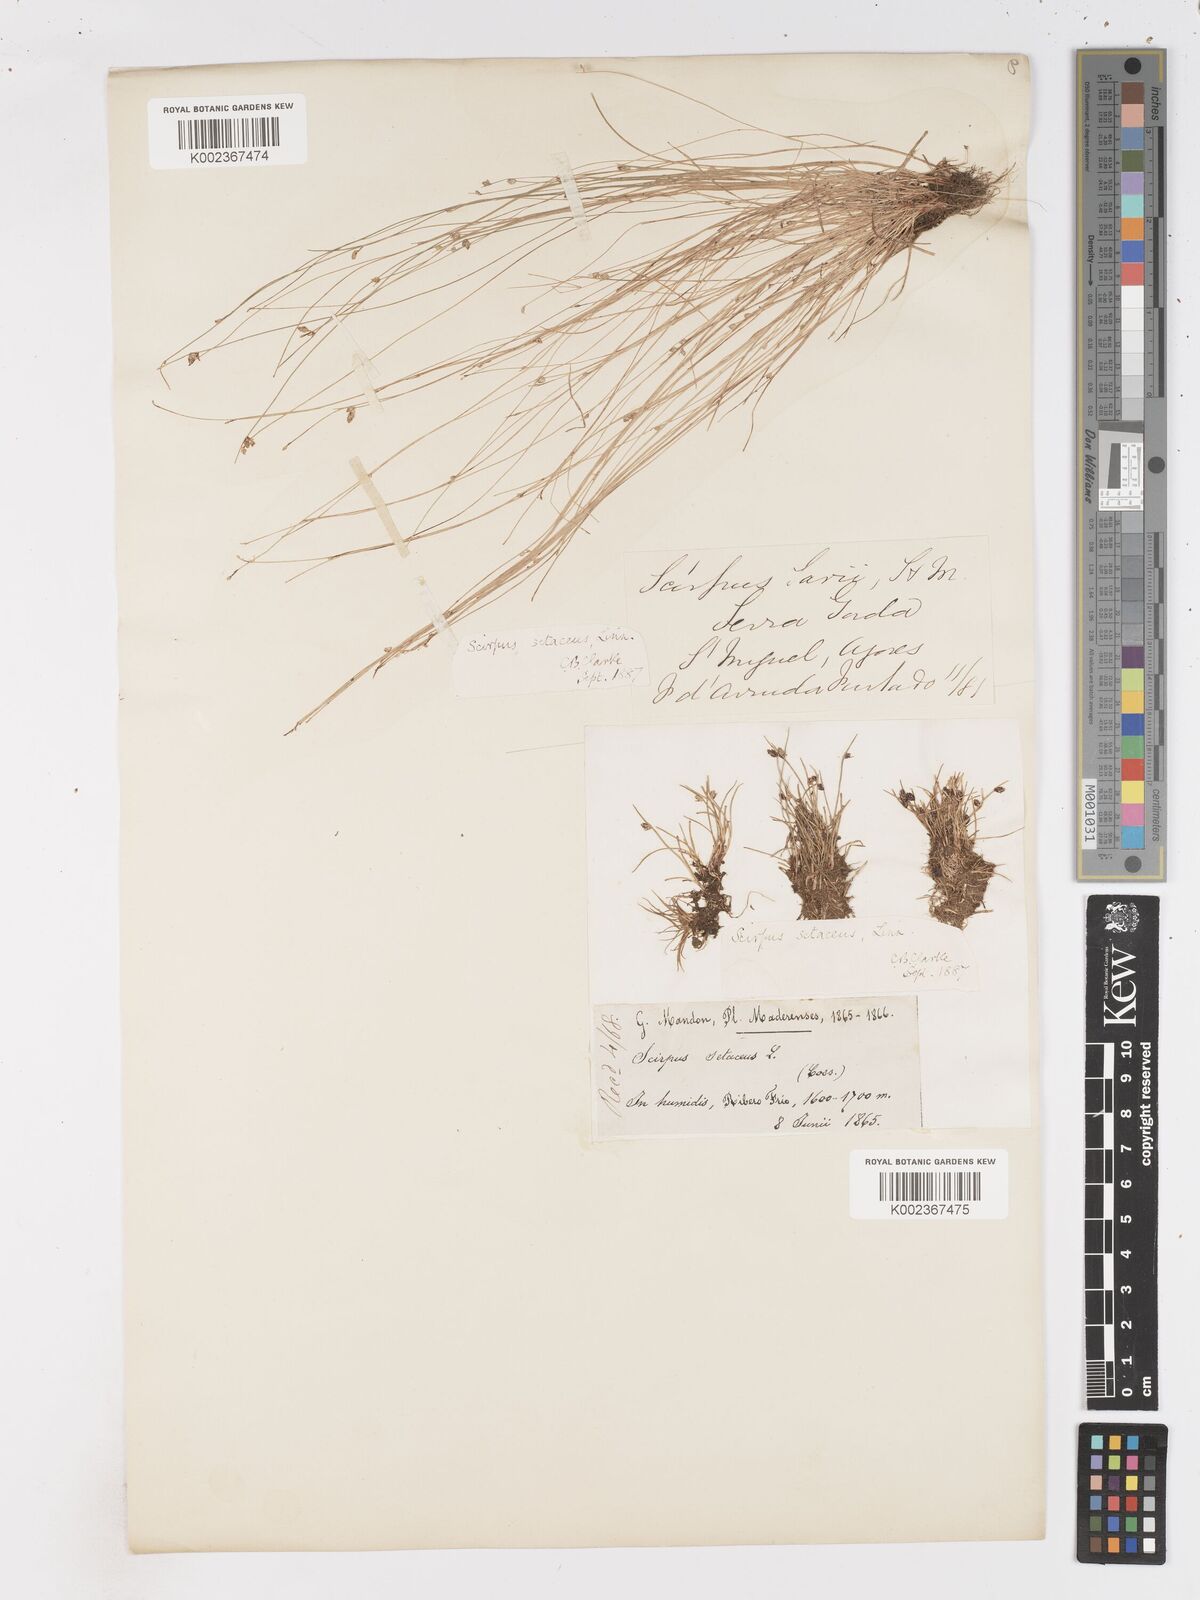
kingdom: Plantae
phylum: Tracheophyta
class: Liliopsida
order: Poales
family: Cyperaceae
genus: Isolepis
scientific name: Isolepis setacea
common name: Bristle club-rush
